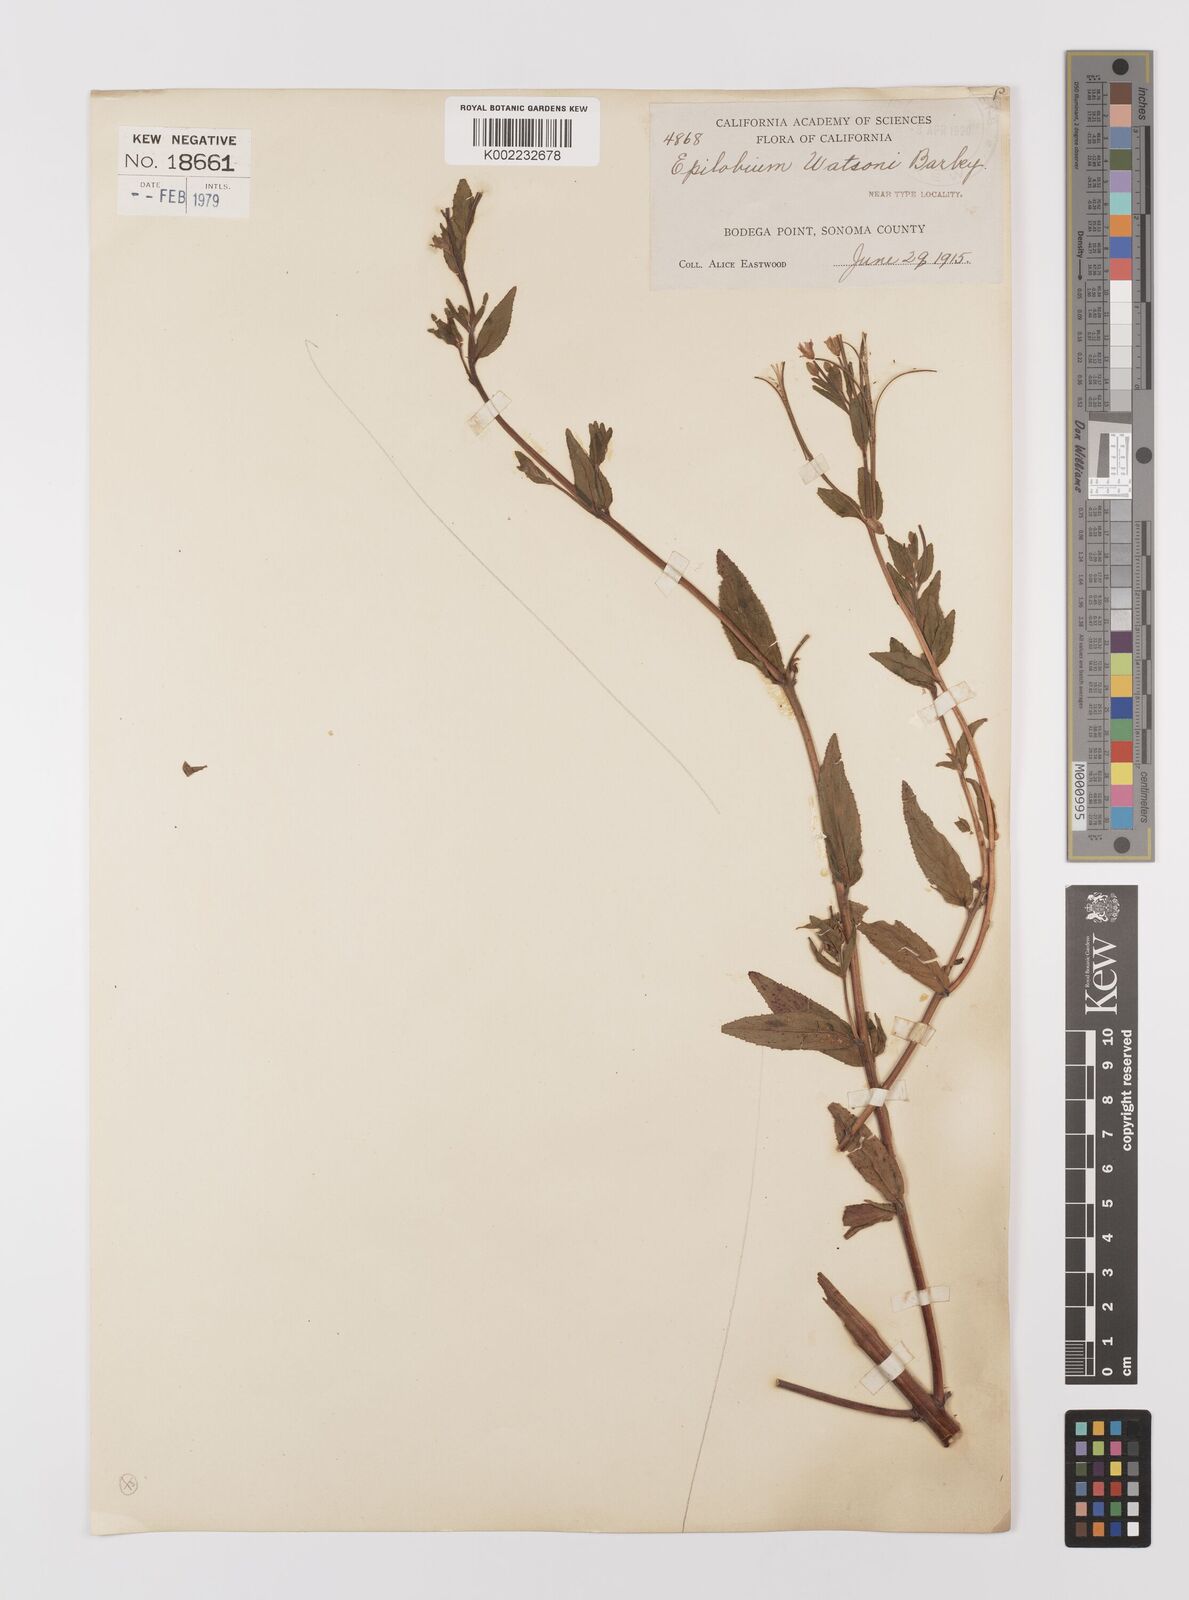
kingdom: Plantae
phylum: Tracheophyta
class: Magnoliopsida
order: Myrtales
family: Onagraceae
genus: Epilobium
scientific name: Epilobium ciliatum
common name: American willowherb
